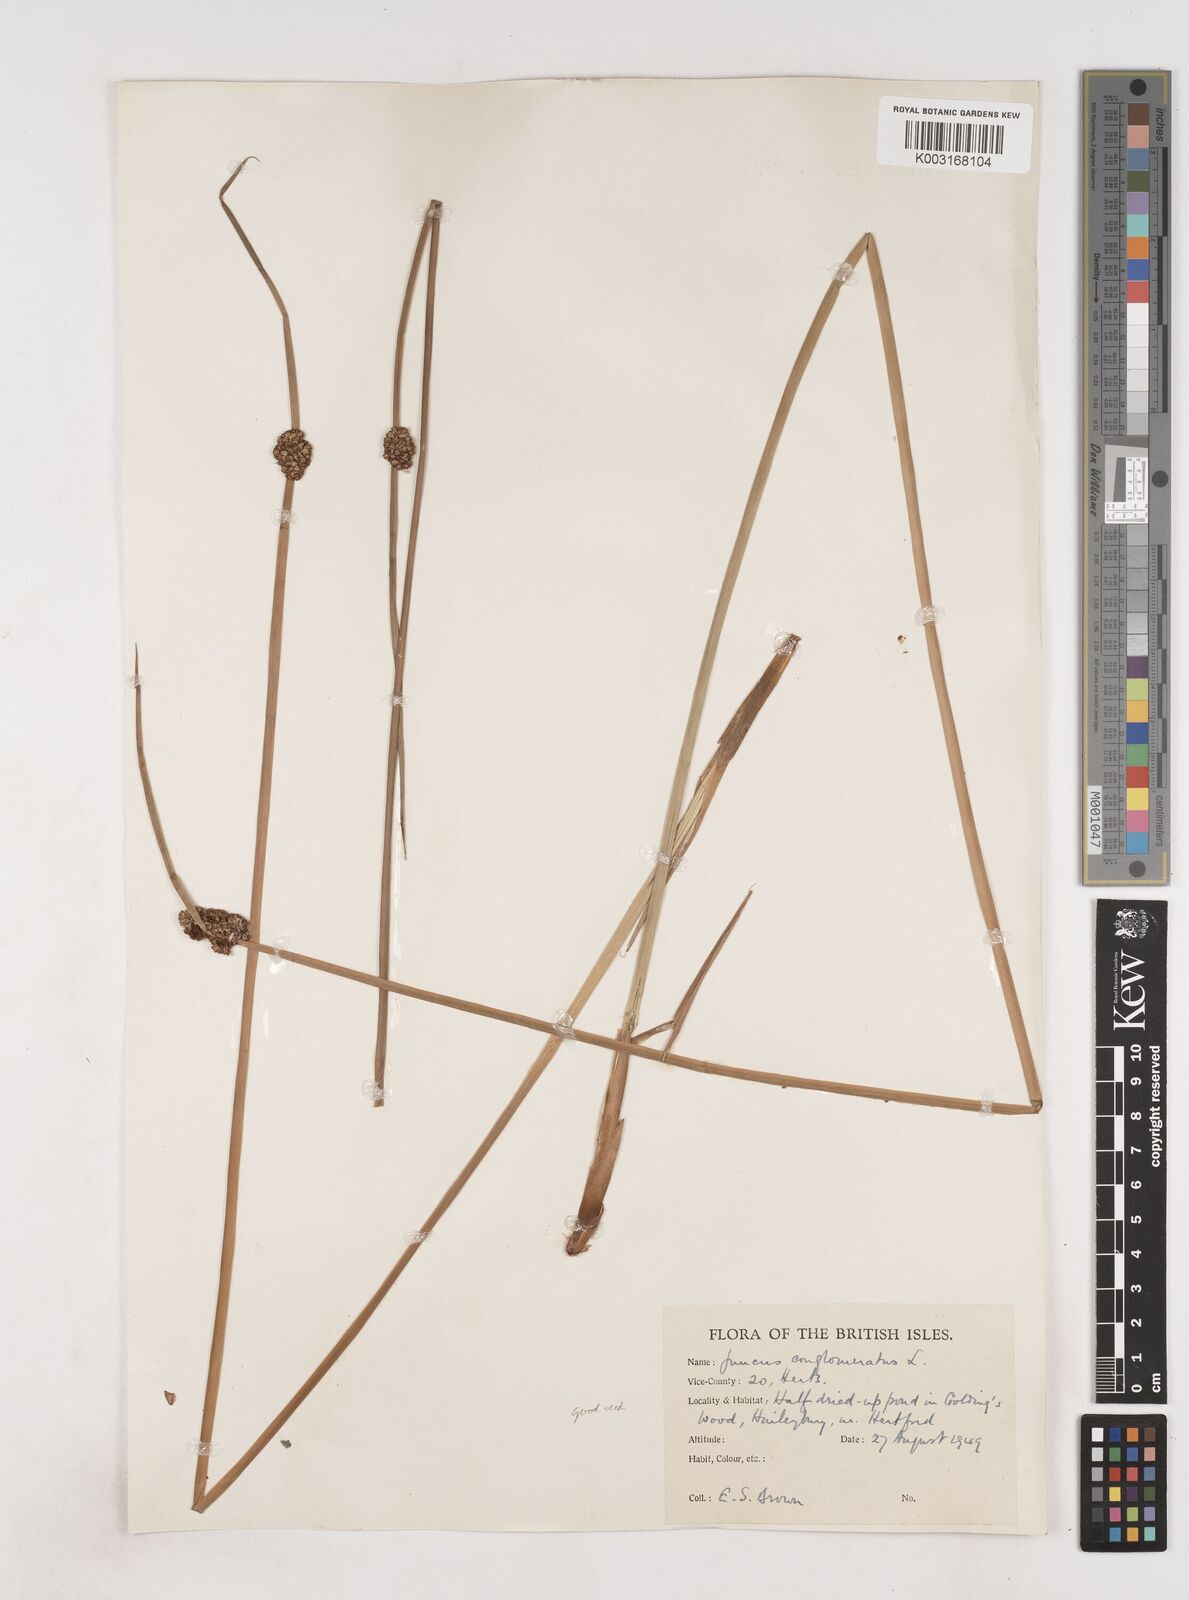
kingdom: Plantae
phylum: Tracheophyta
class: Liliopsida
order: Poales
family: Juncaceae
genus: Juncus
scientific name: Juncus conglomeratus
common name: Compact rush
